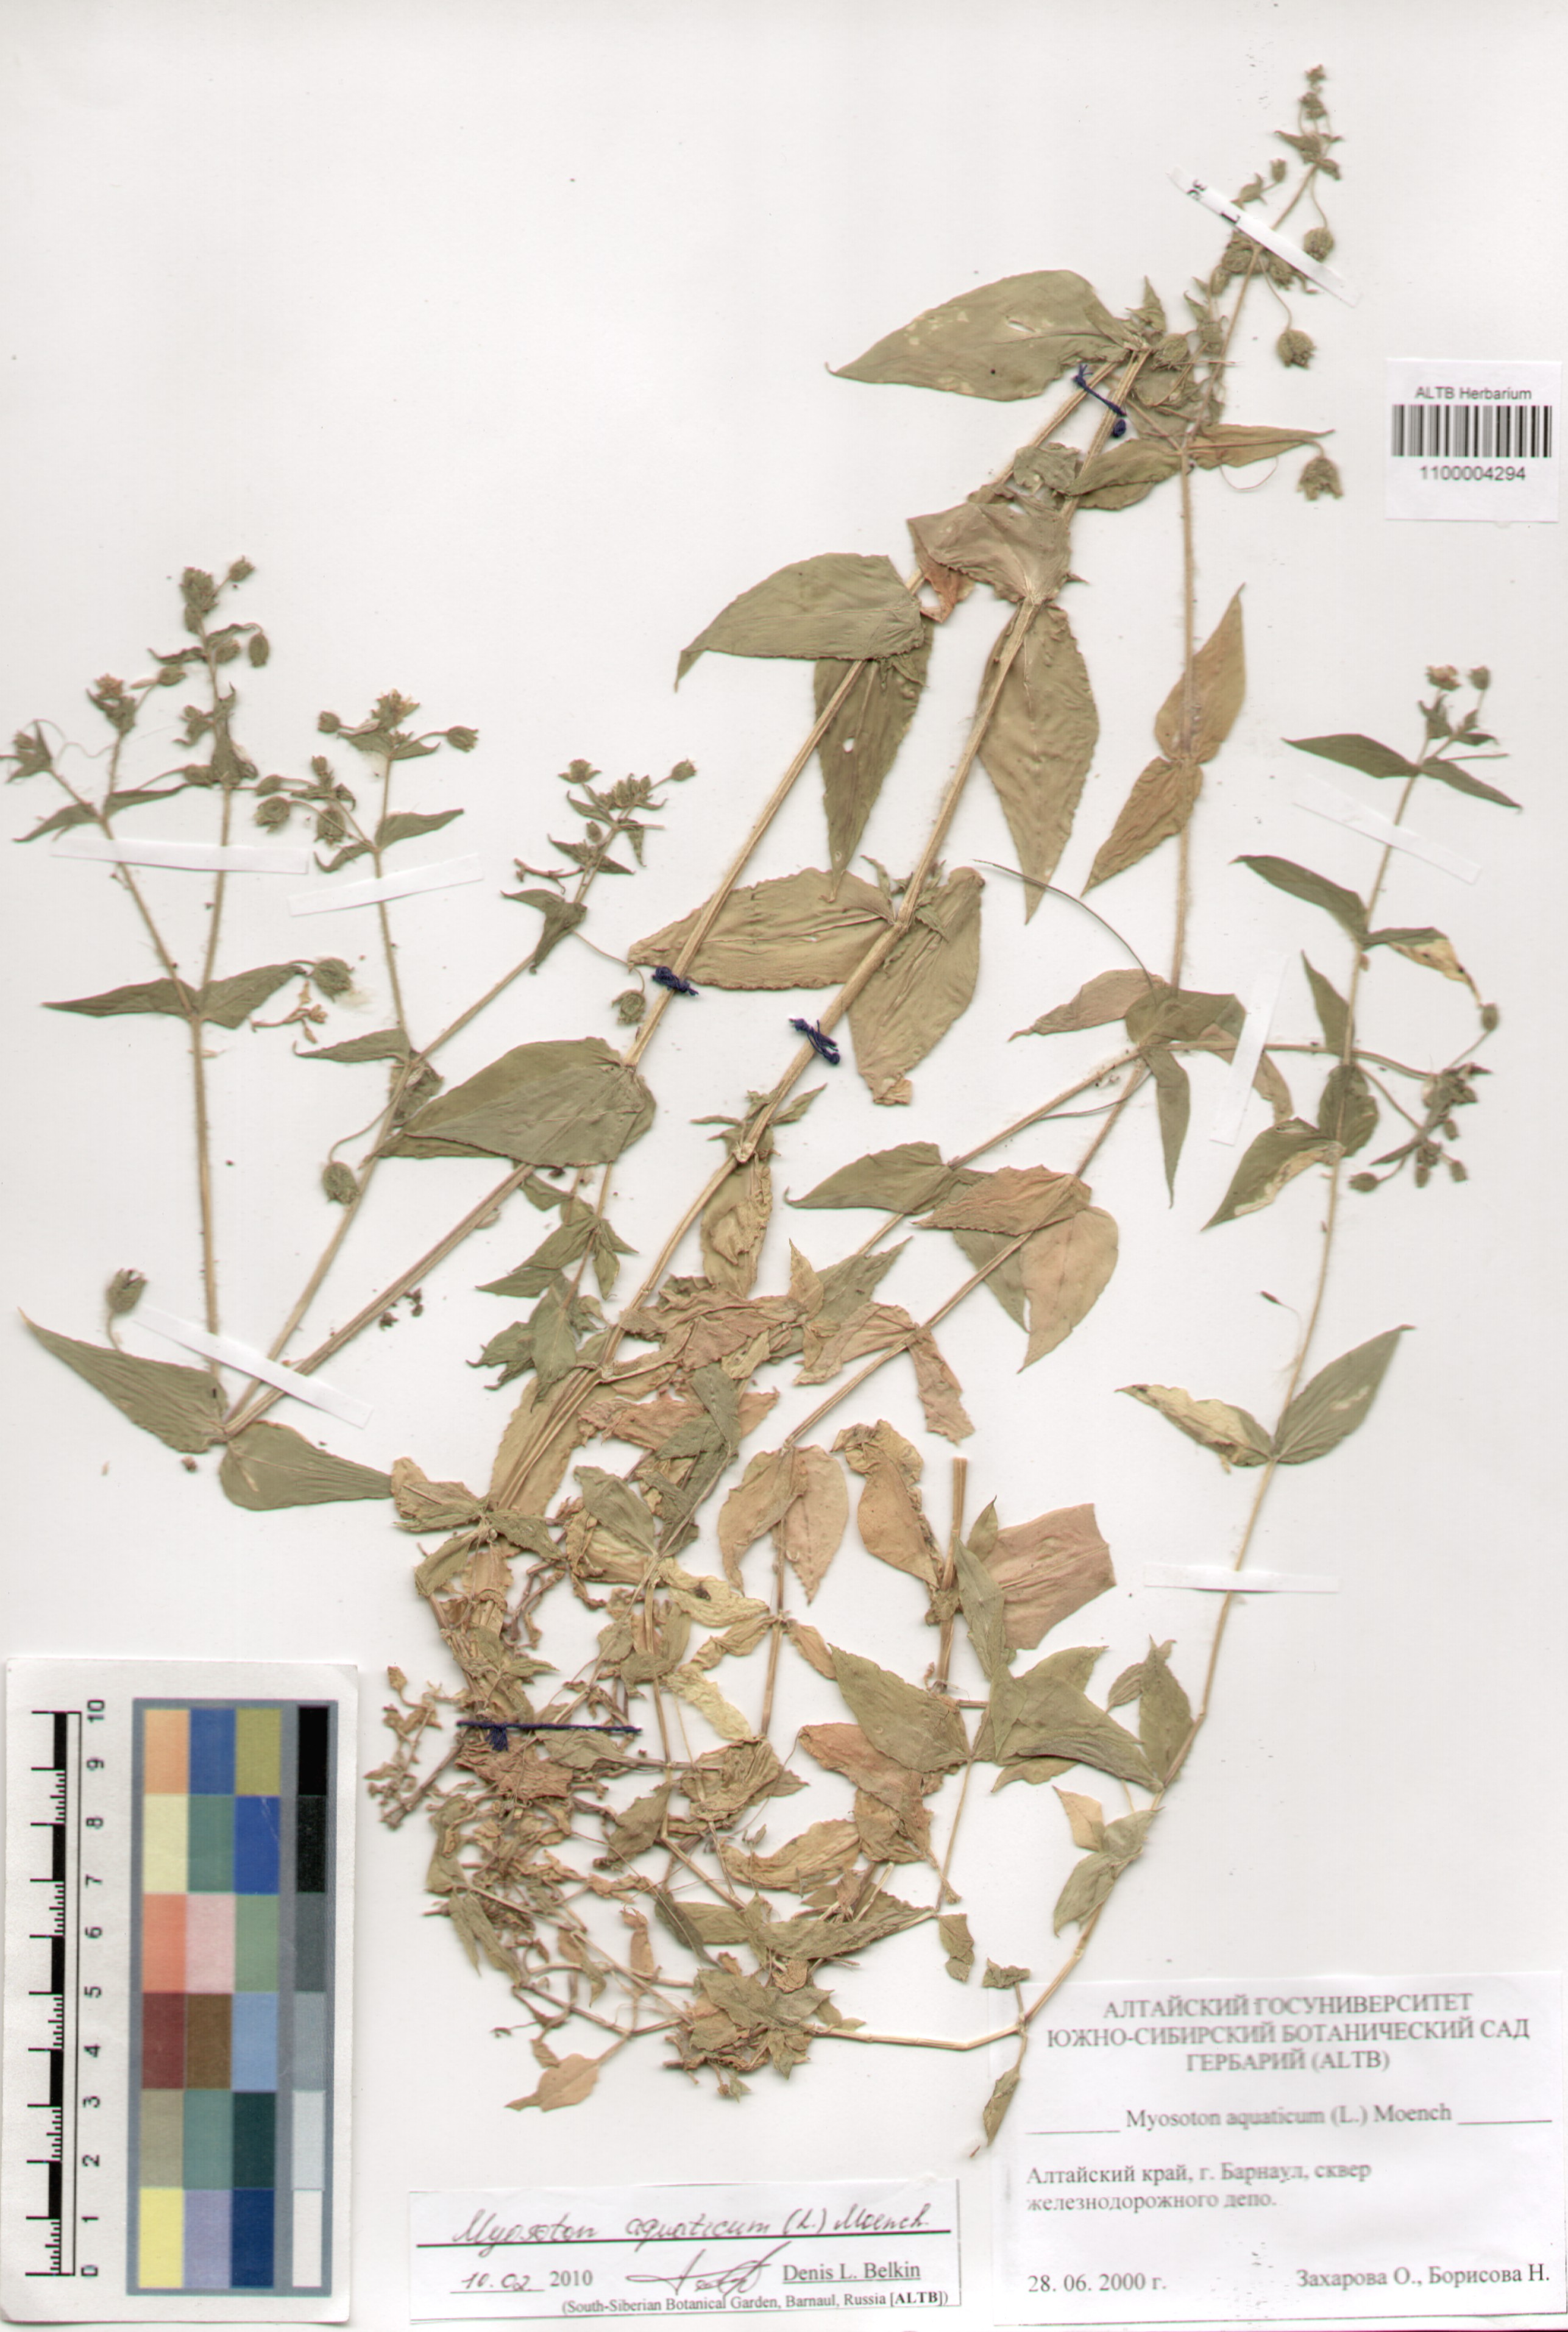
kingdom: Plantae
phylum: Tracheophyta
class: Magnoliopsida
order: Caryophyllales
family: Caryophyllaceae
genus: Stellaria
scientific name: Stellaria aquatica
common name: Water chickweed
